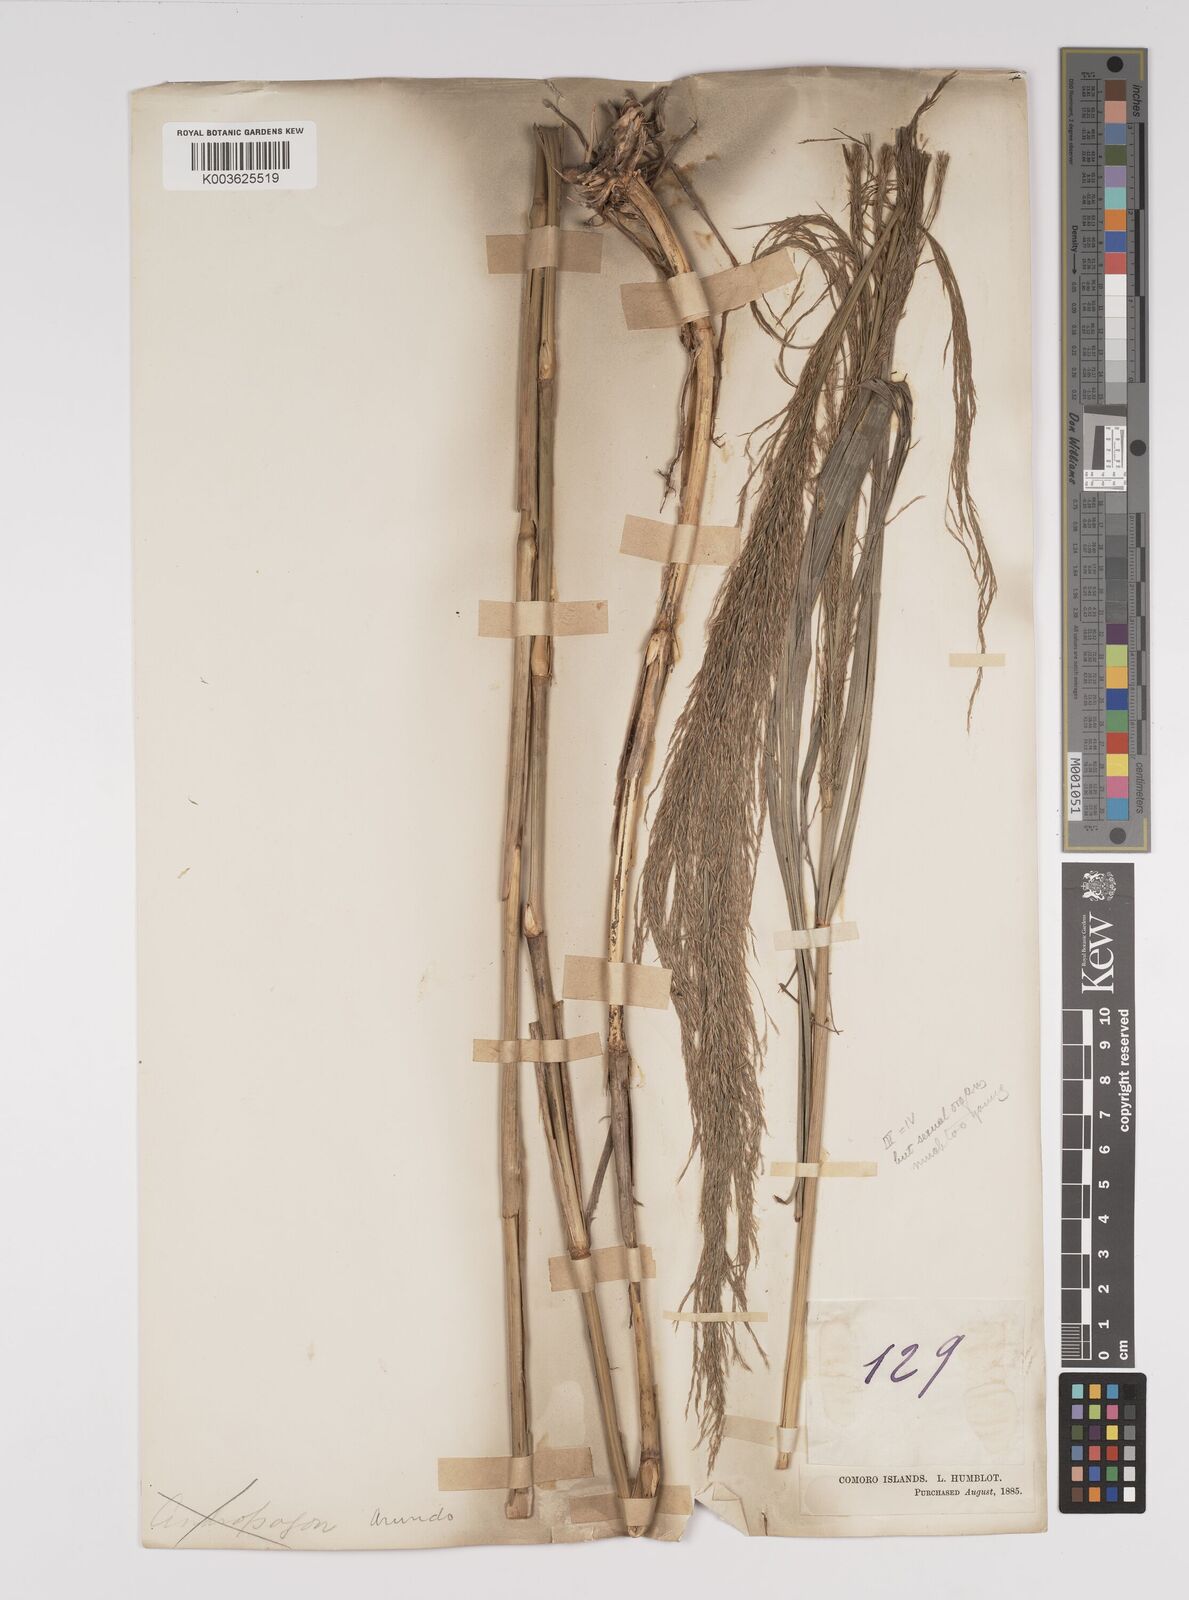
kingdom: Plantae
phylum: Tracheophyta
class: Liliopsida
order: Poales
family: Poaceae
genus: Neyraudia
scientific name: Neyraudia arundinacea
